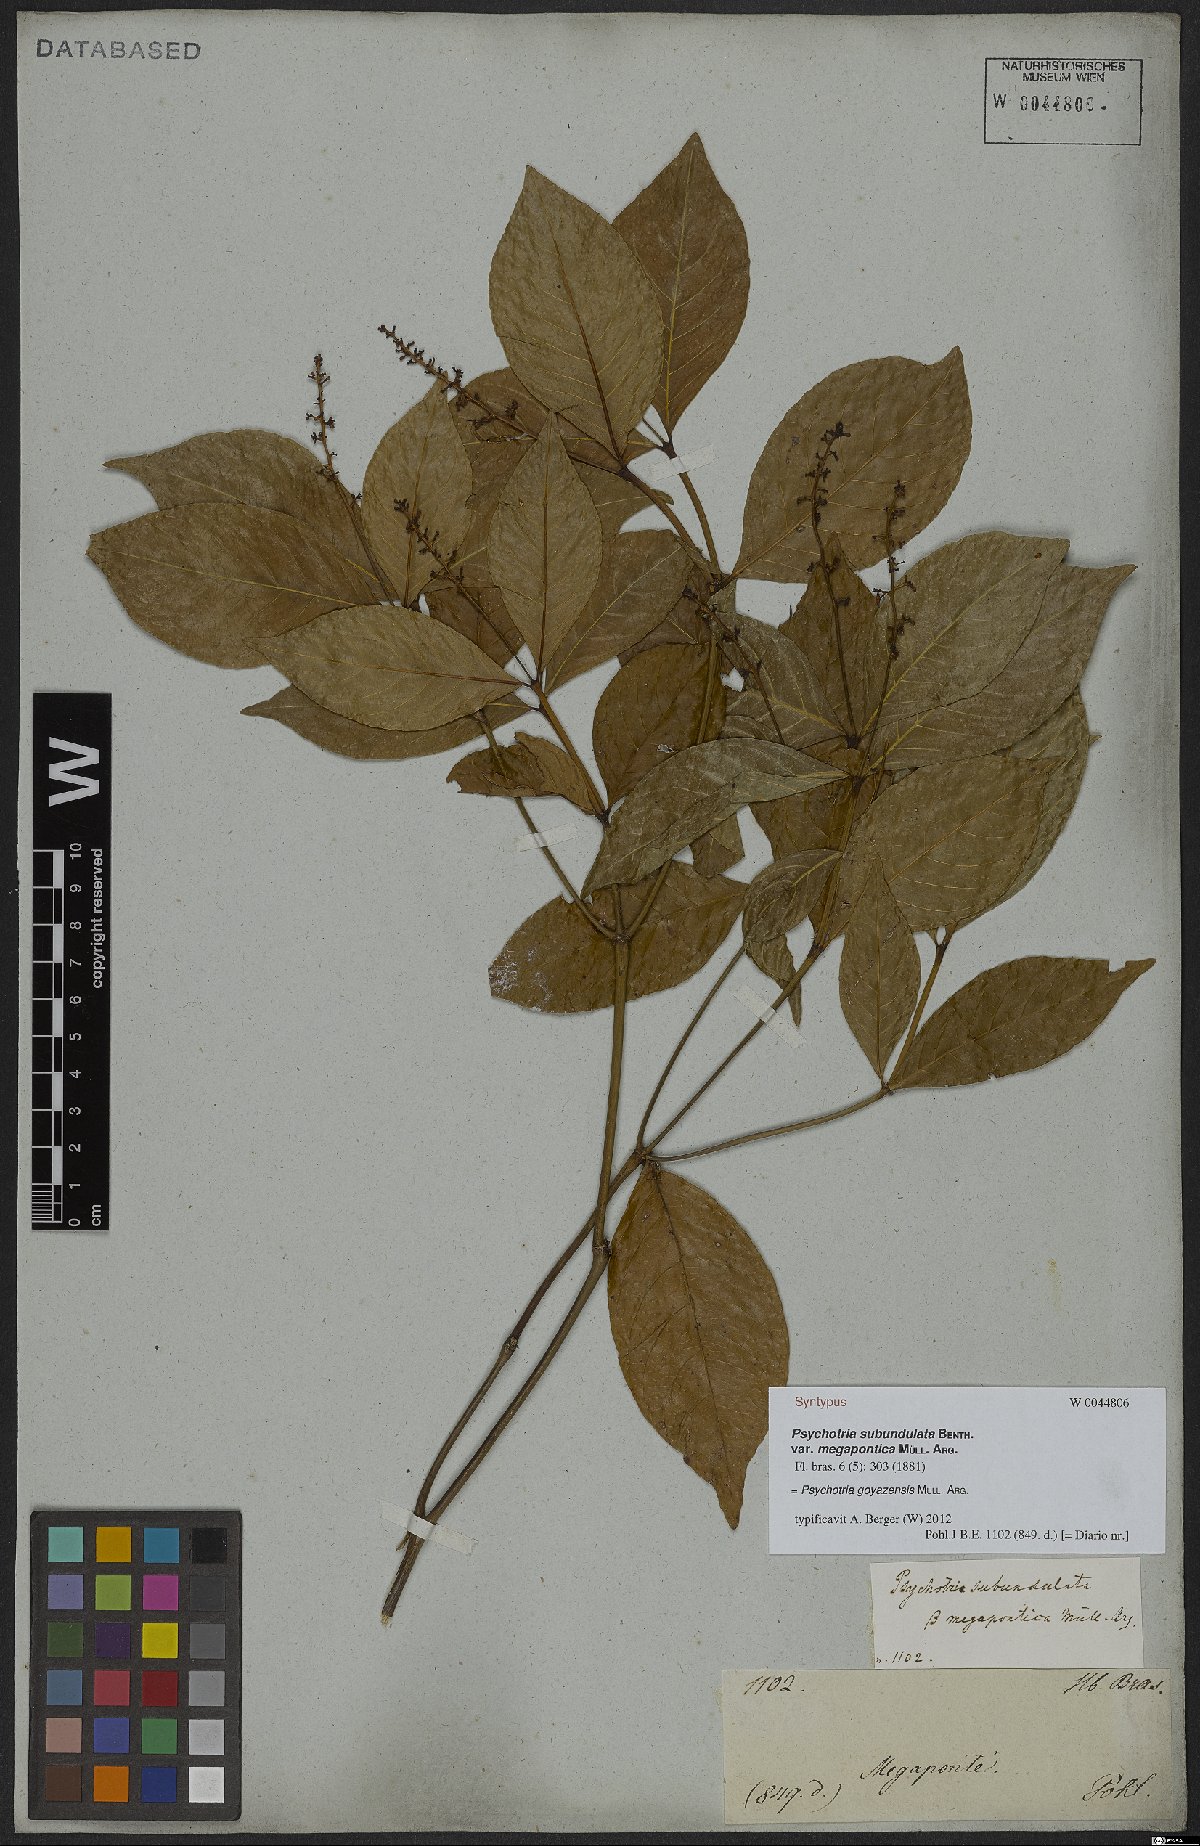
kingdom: Plantae
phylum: Tracheophyta
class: Magnoliopsida
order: Gentianales
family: Rubiaceae
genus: Palicourea
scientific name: Palicourea goyazensis
